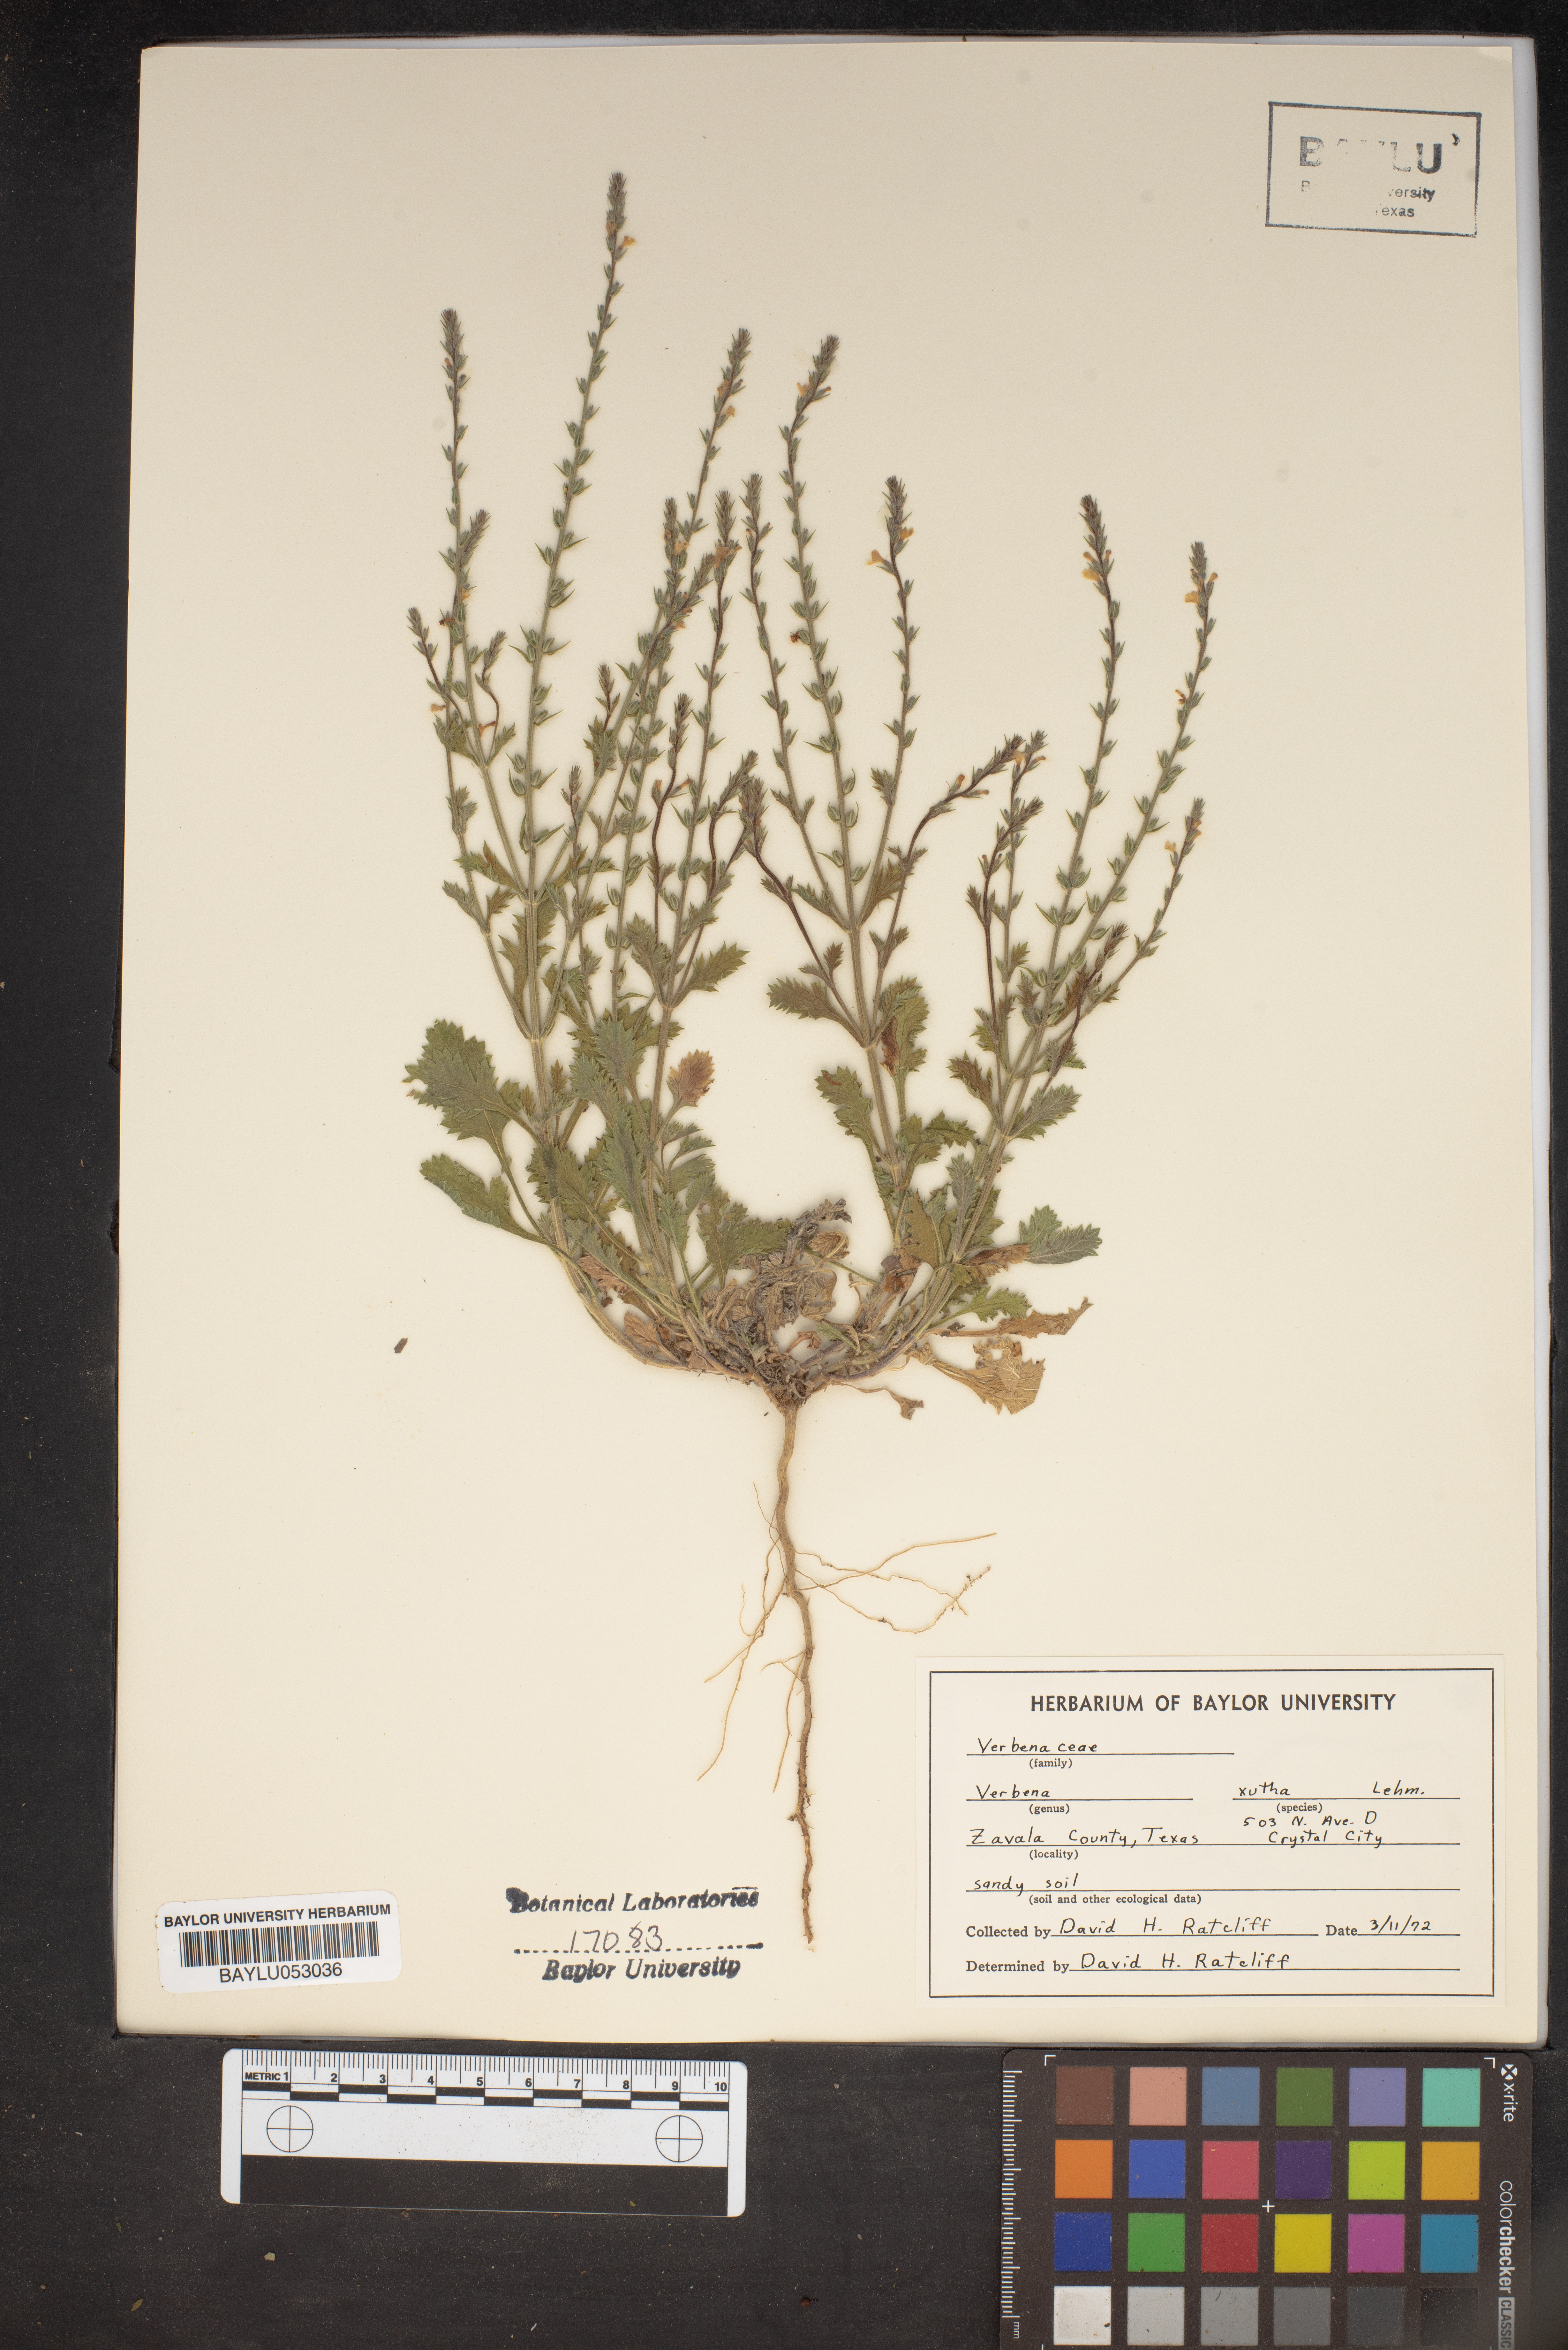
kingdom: Plantae
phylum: Tracheophyta
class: Magnoliopsida
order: Lamiales
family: Verbenaceae
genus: Verbena
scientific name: Verbena xutha
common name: Gulf vervain
